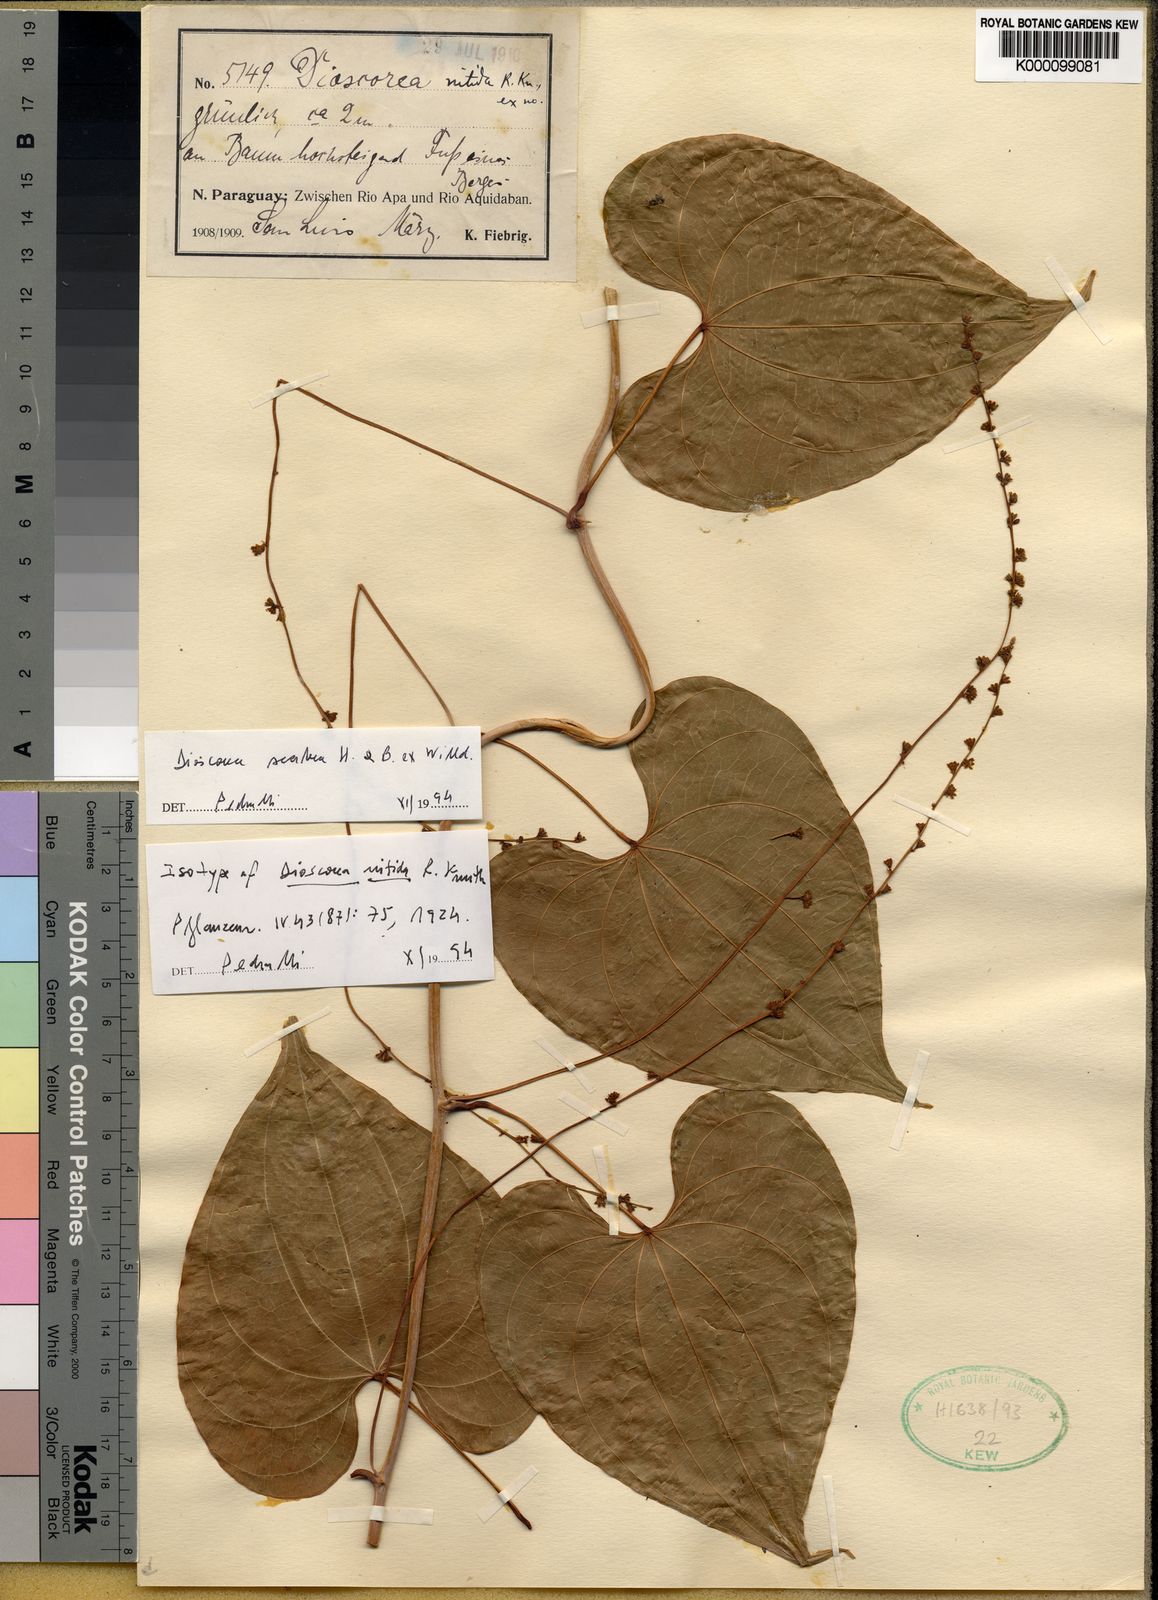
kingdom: Plantae
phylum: Tracheophyta
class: Liliopsida
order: Dioscoreales
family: Dioscoreaceae
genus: Dioscorea
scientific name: Dioscorea chondrocarpa
